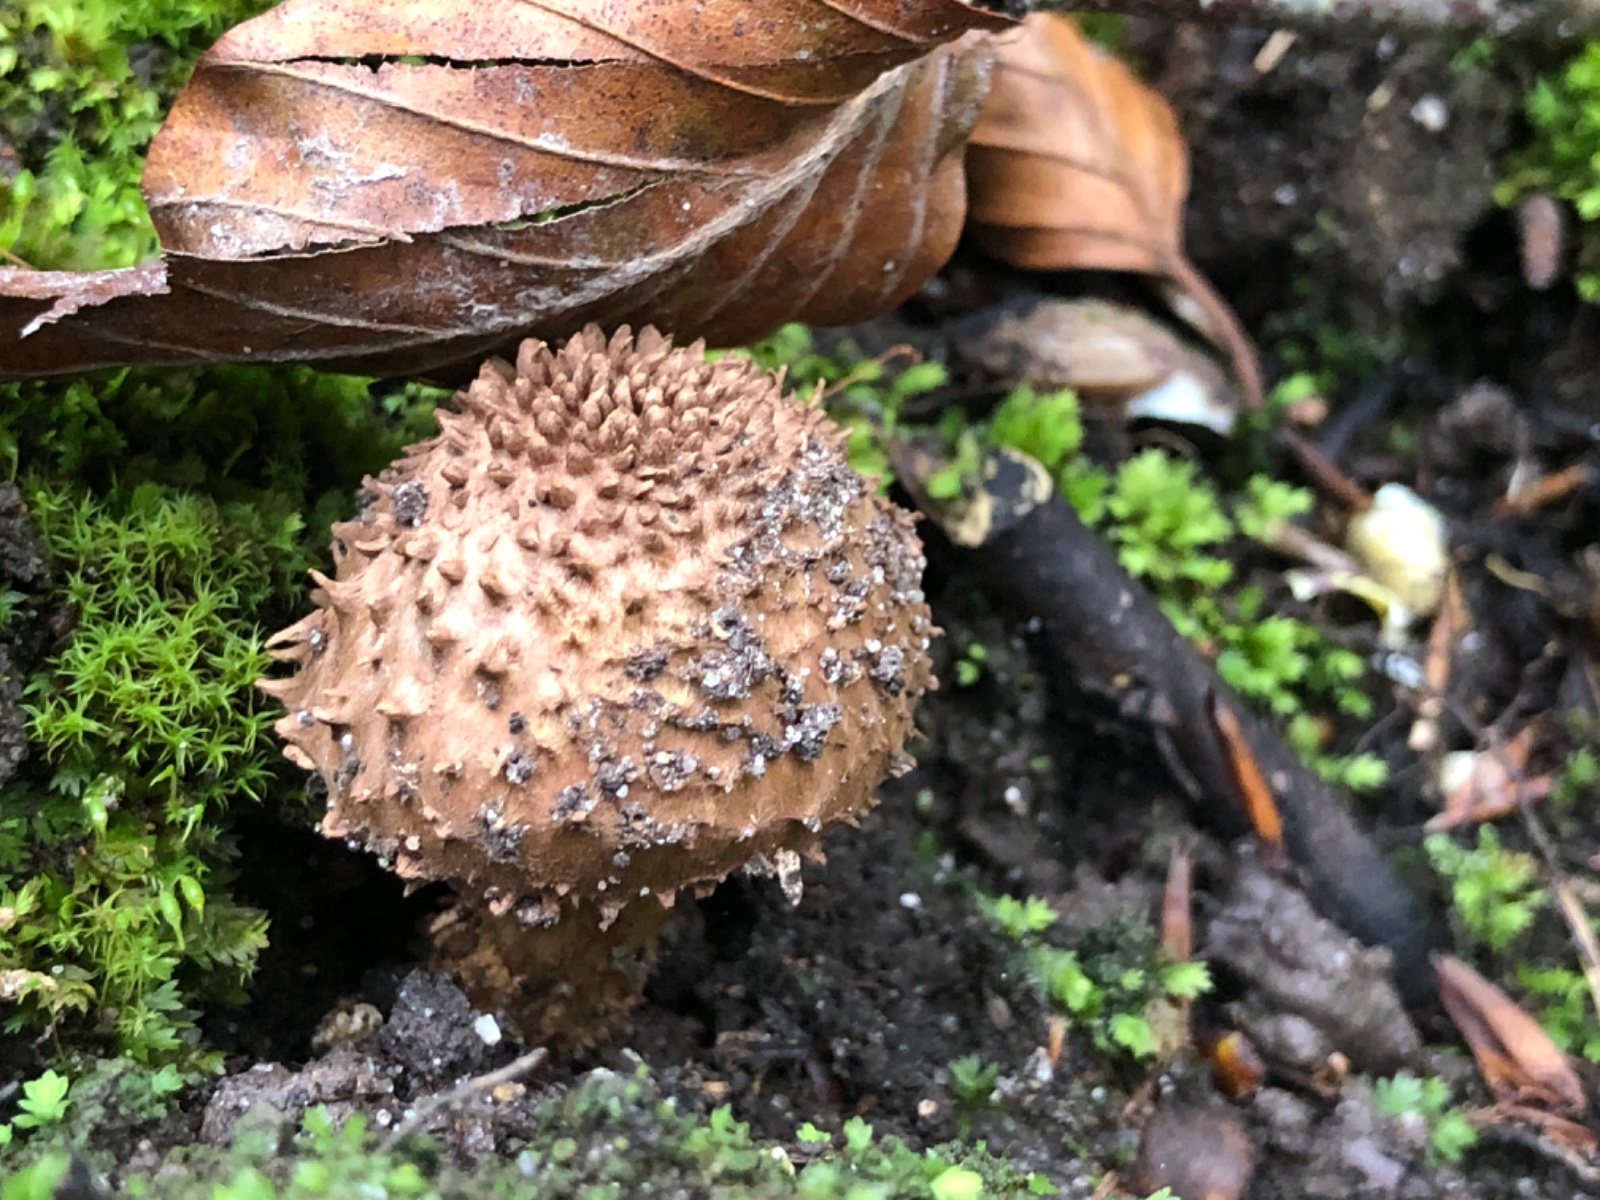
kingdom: Fungi
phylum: Basidiomycota
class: Agaricomycetes
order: Agaricales
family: Agaricaceae
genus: Echinoderma
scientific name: Echinoderma calcicola
